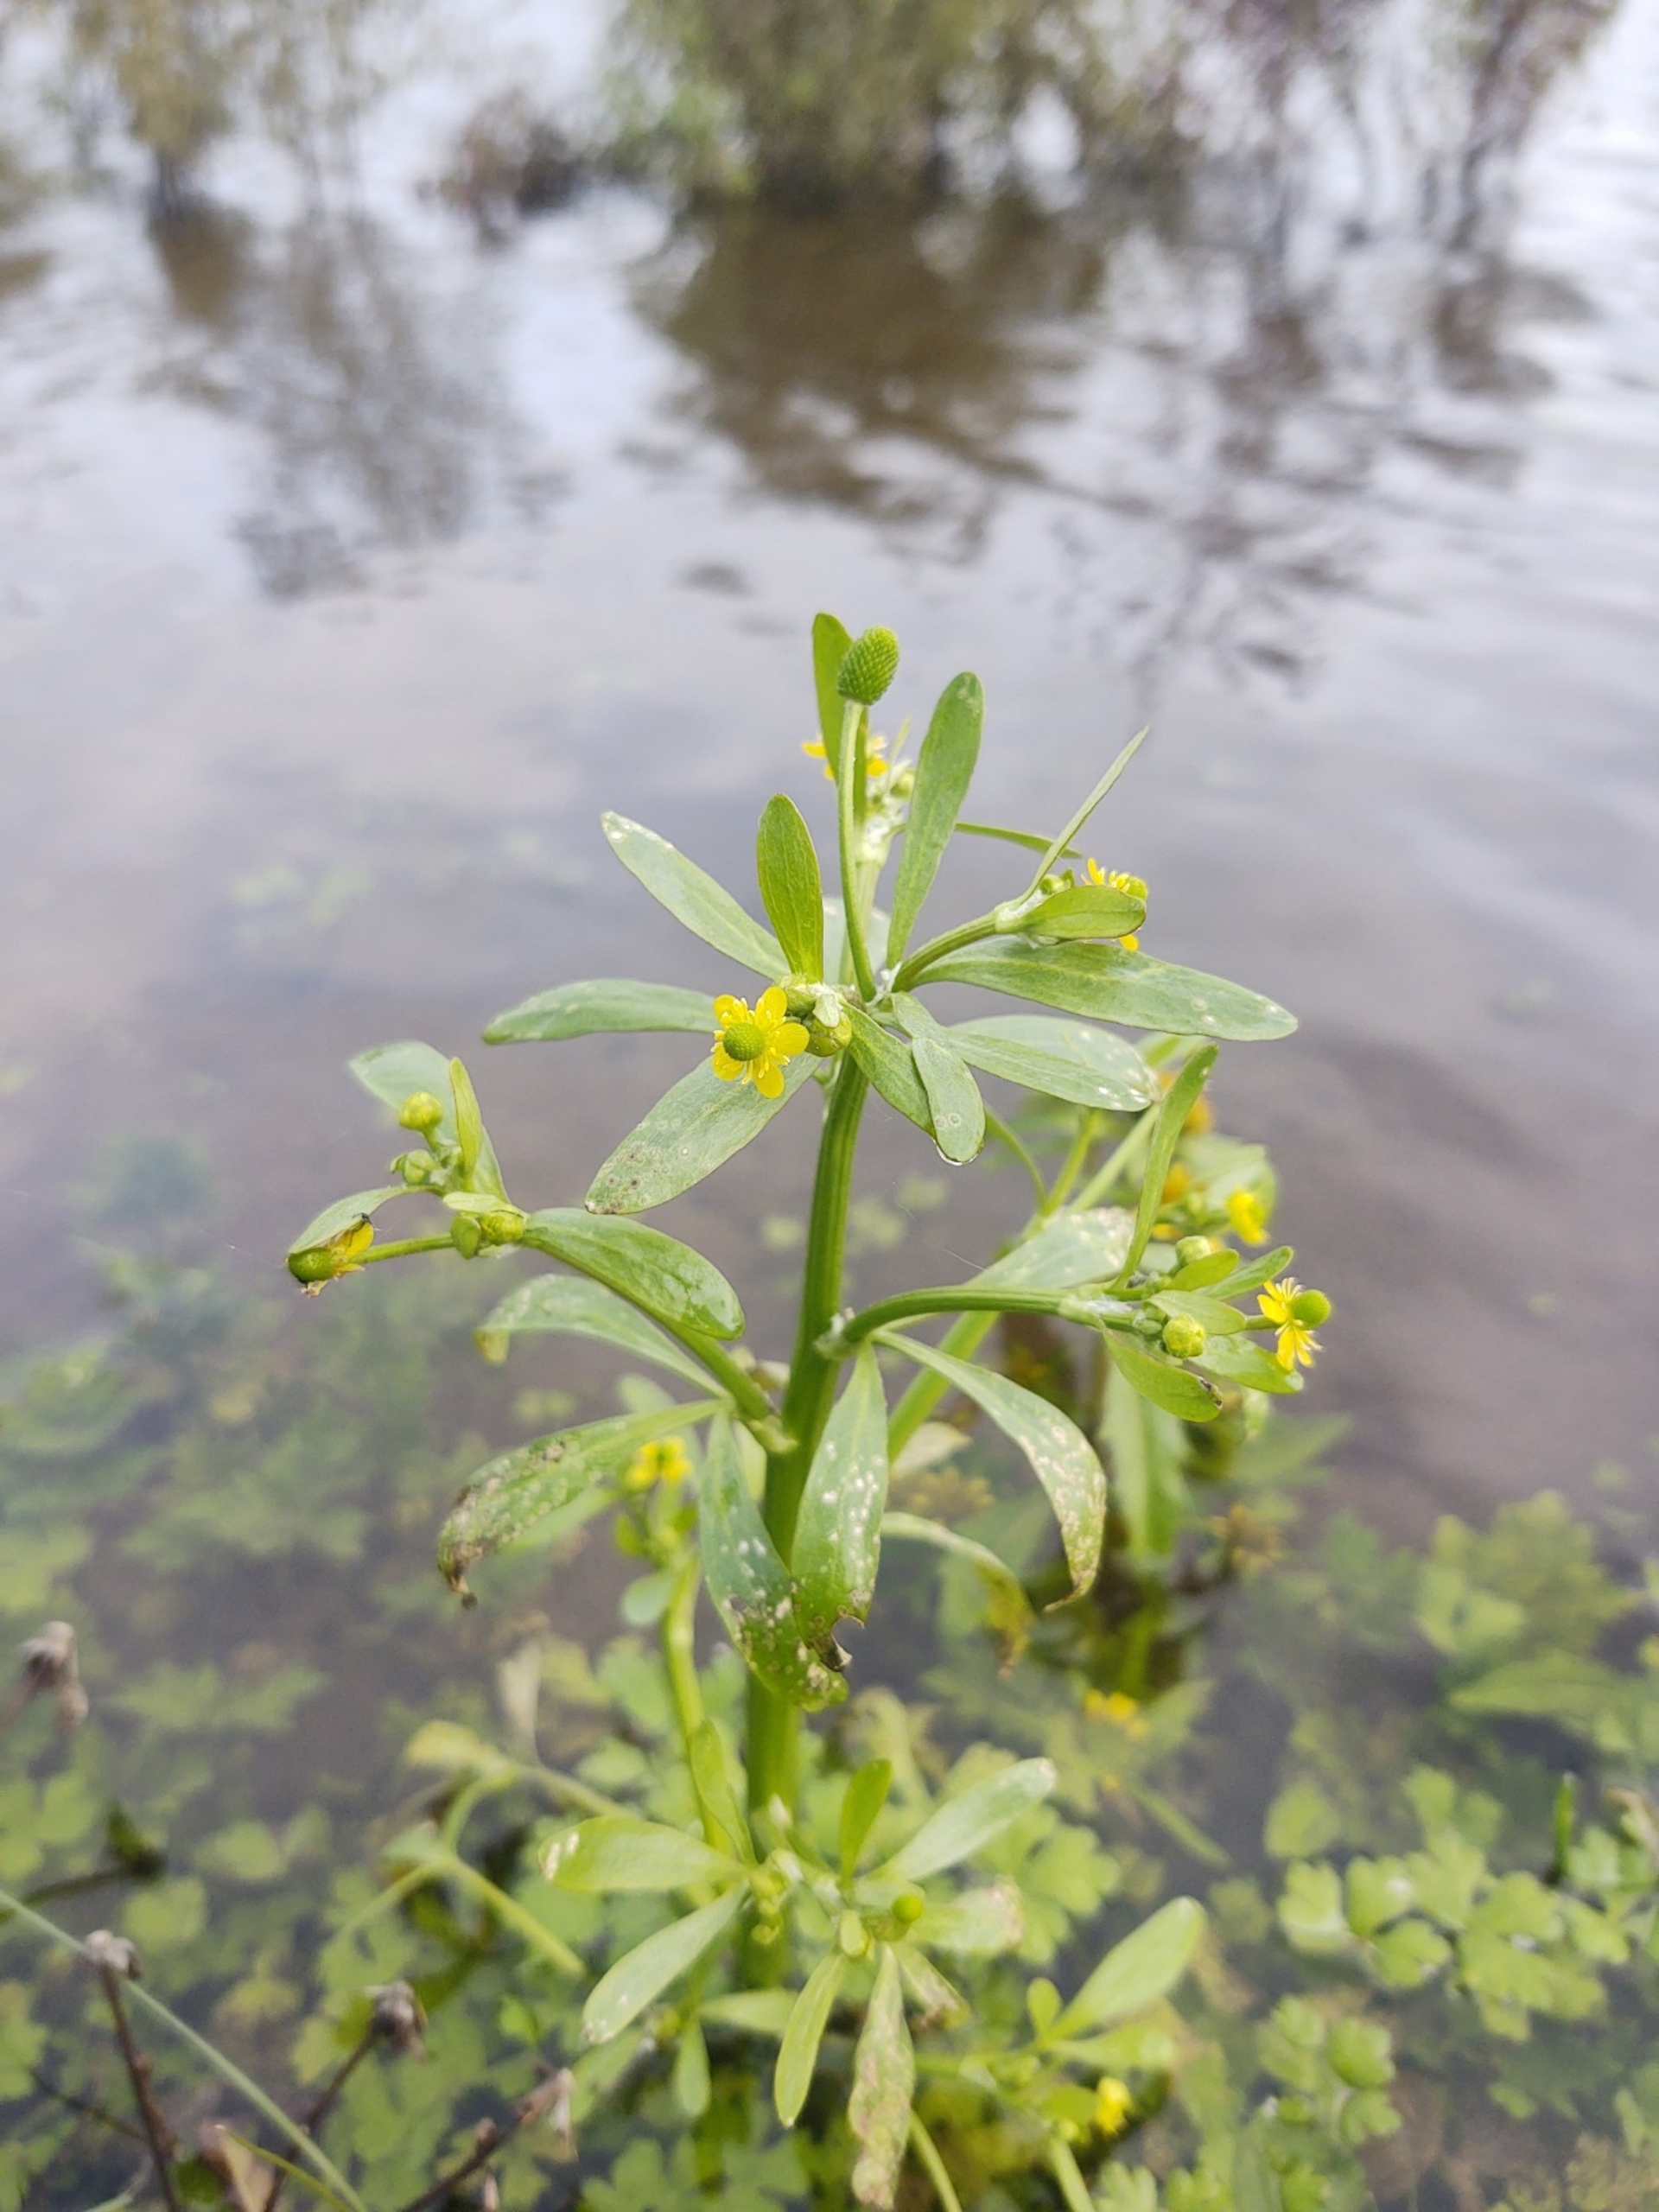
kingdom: Plantae
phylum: Tracheophyta
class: Magnoliopsida
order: Ranunculales
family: Ranunculaceae
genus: Ranunculus
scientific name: Ranunculus sceleratus
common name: Tigger-ranunkel
